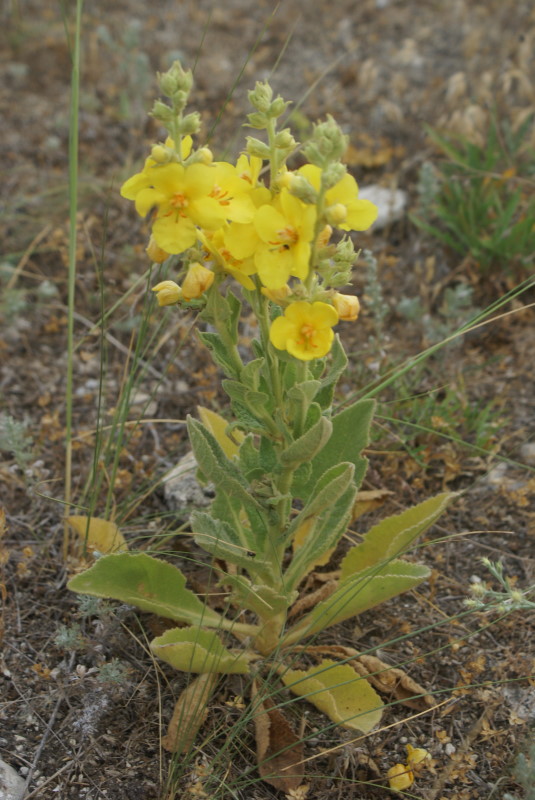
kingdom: Plantae
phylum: Tracheophyta
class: Magnoliopsida
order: Lamiales
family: Scrophulariaceae
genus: Verbascum
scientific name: Verbascum
